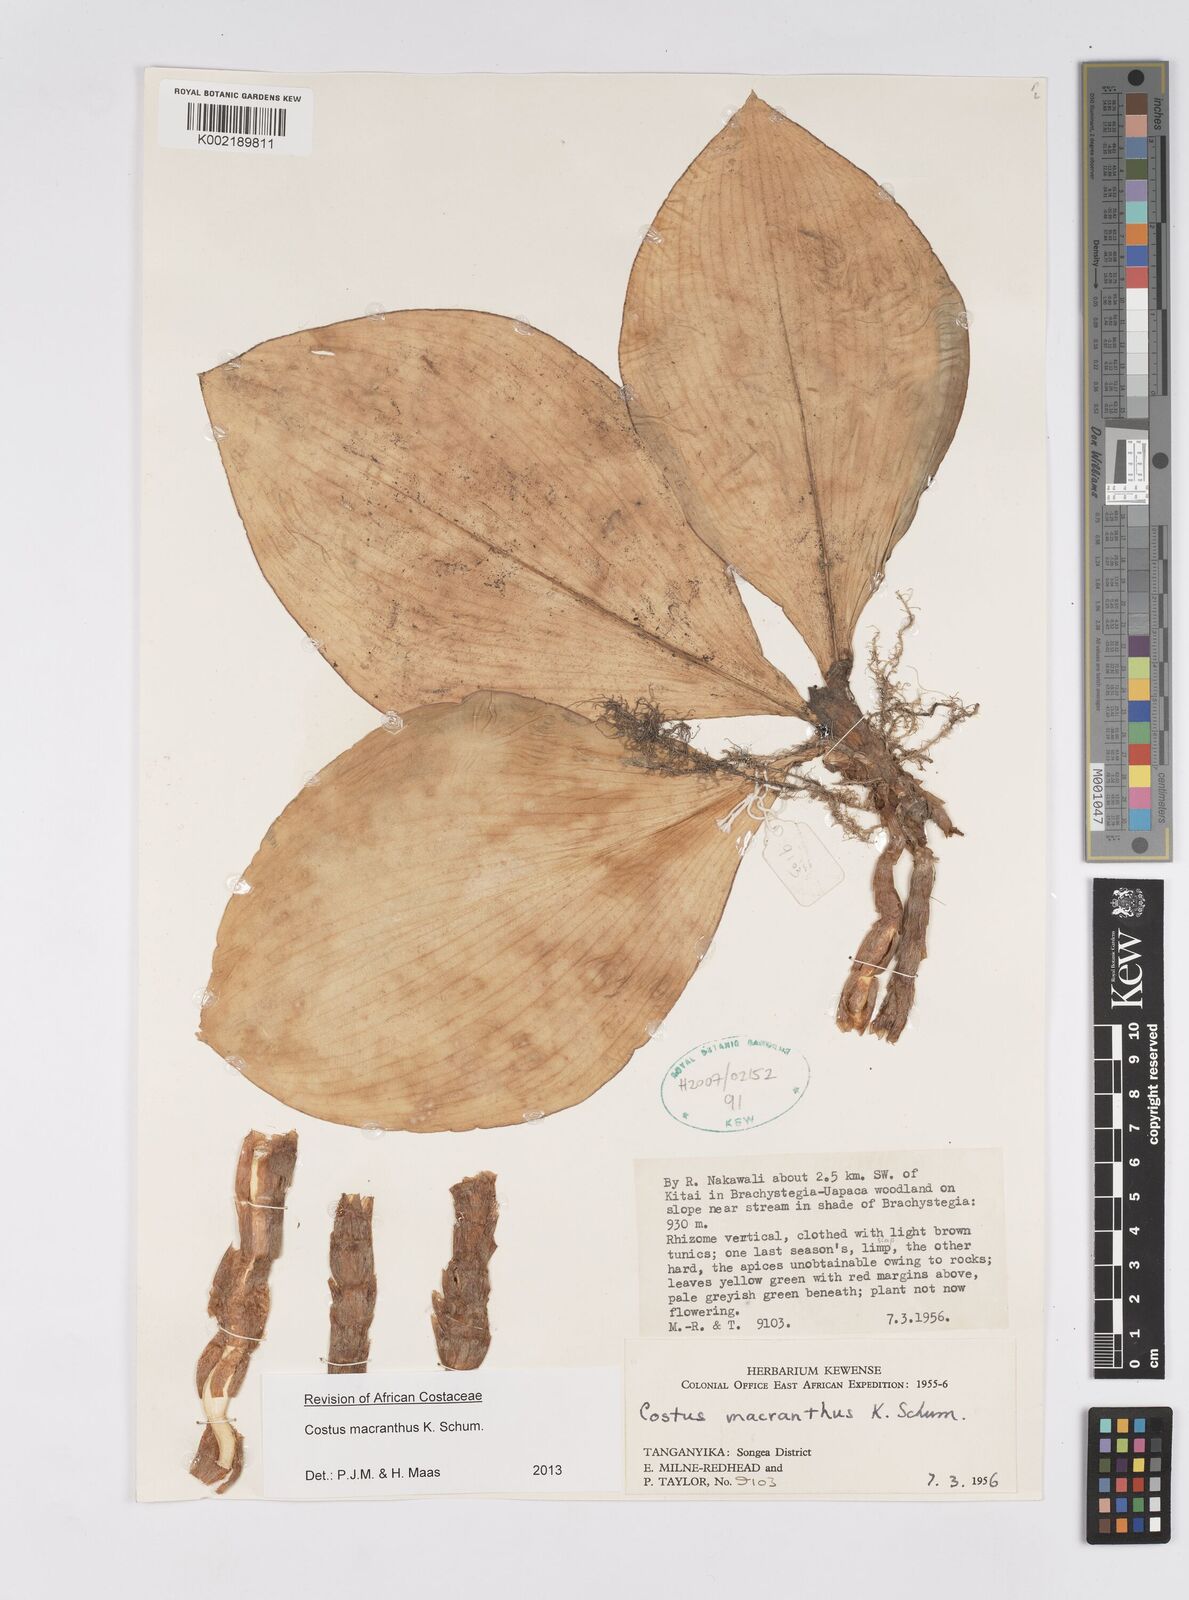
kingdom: Plantae
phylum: Tracheophyta
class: Liliopsida
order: Zingiberales
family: Costaceae
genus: Costus
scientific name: Costus macranthus
